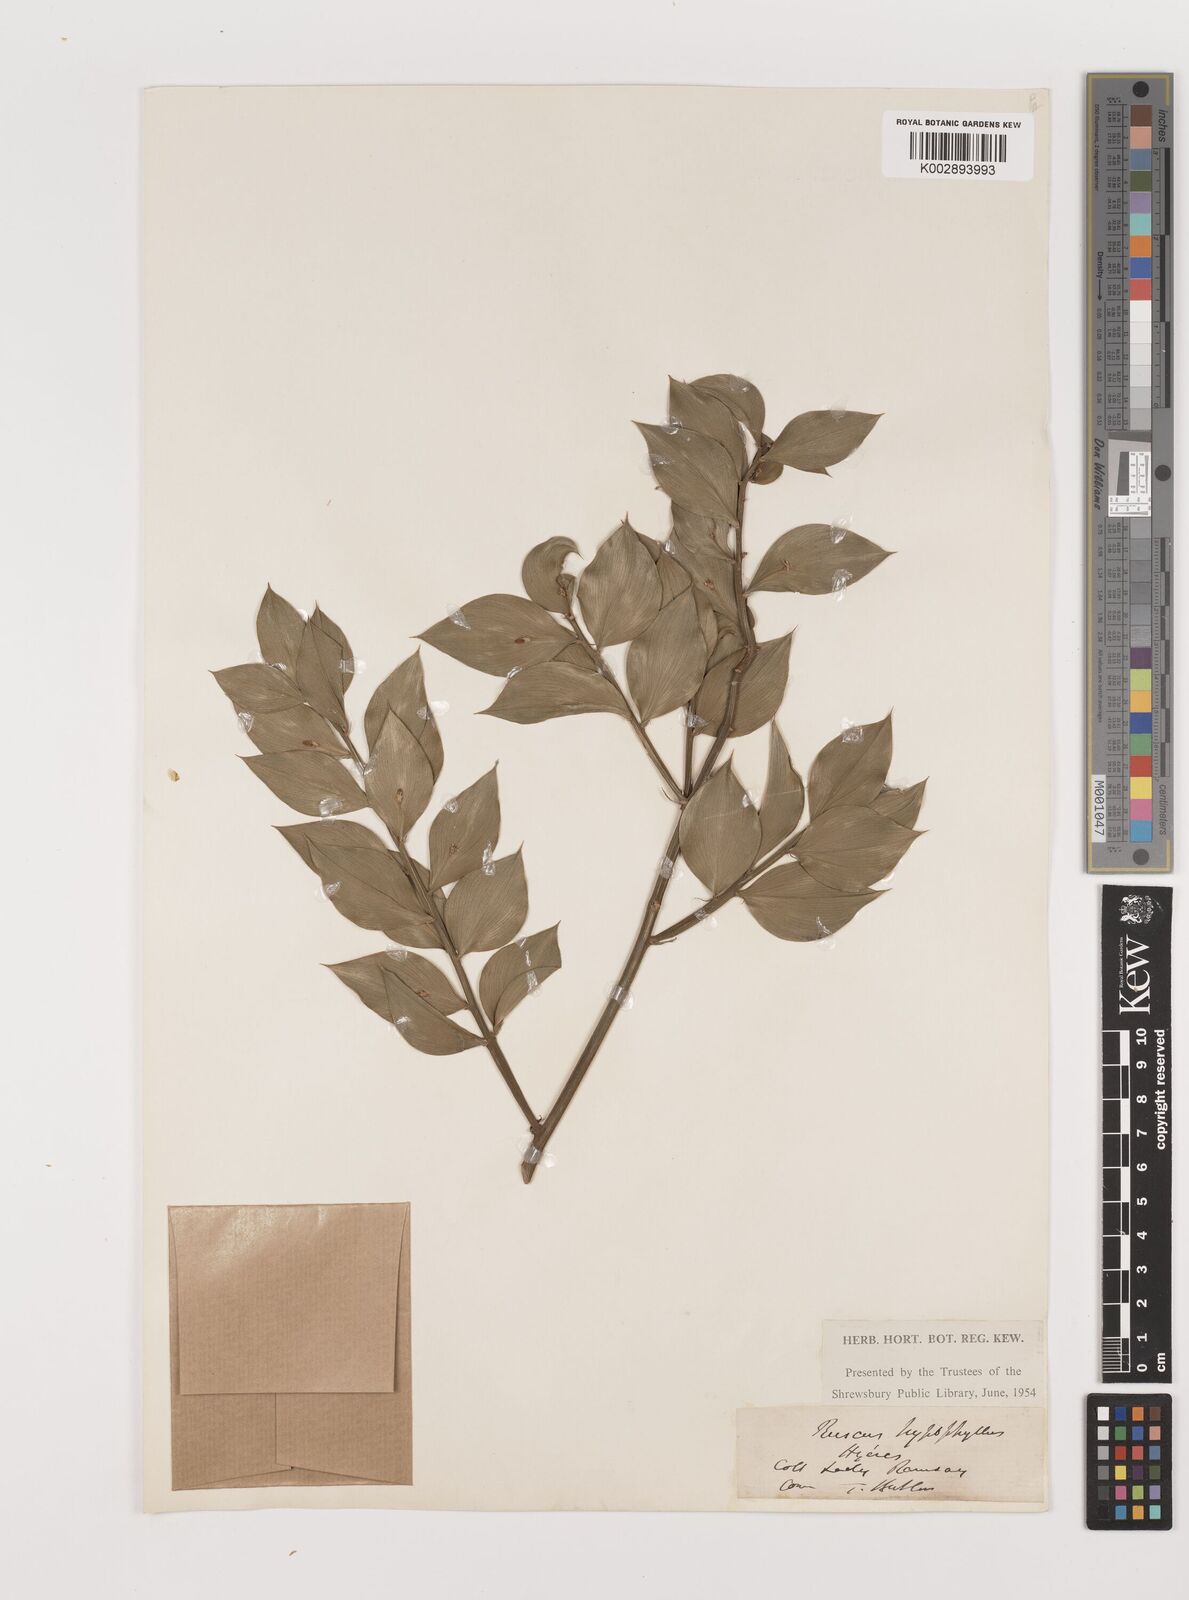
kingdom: Plantae
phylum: Tracheophyta
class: Liliopsida
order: Asparagales
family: Asparagaceae
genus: Ruscus
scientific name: Ruscus hypophyllum
